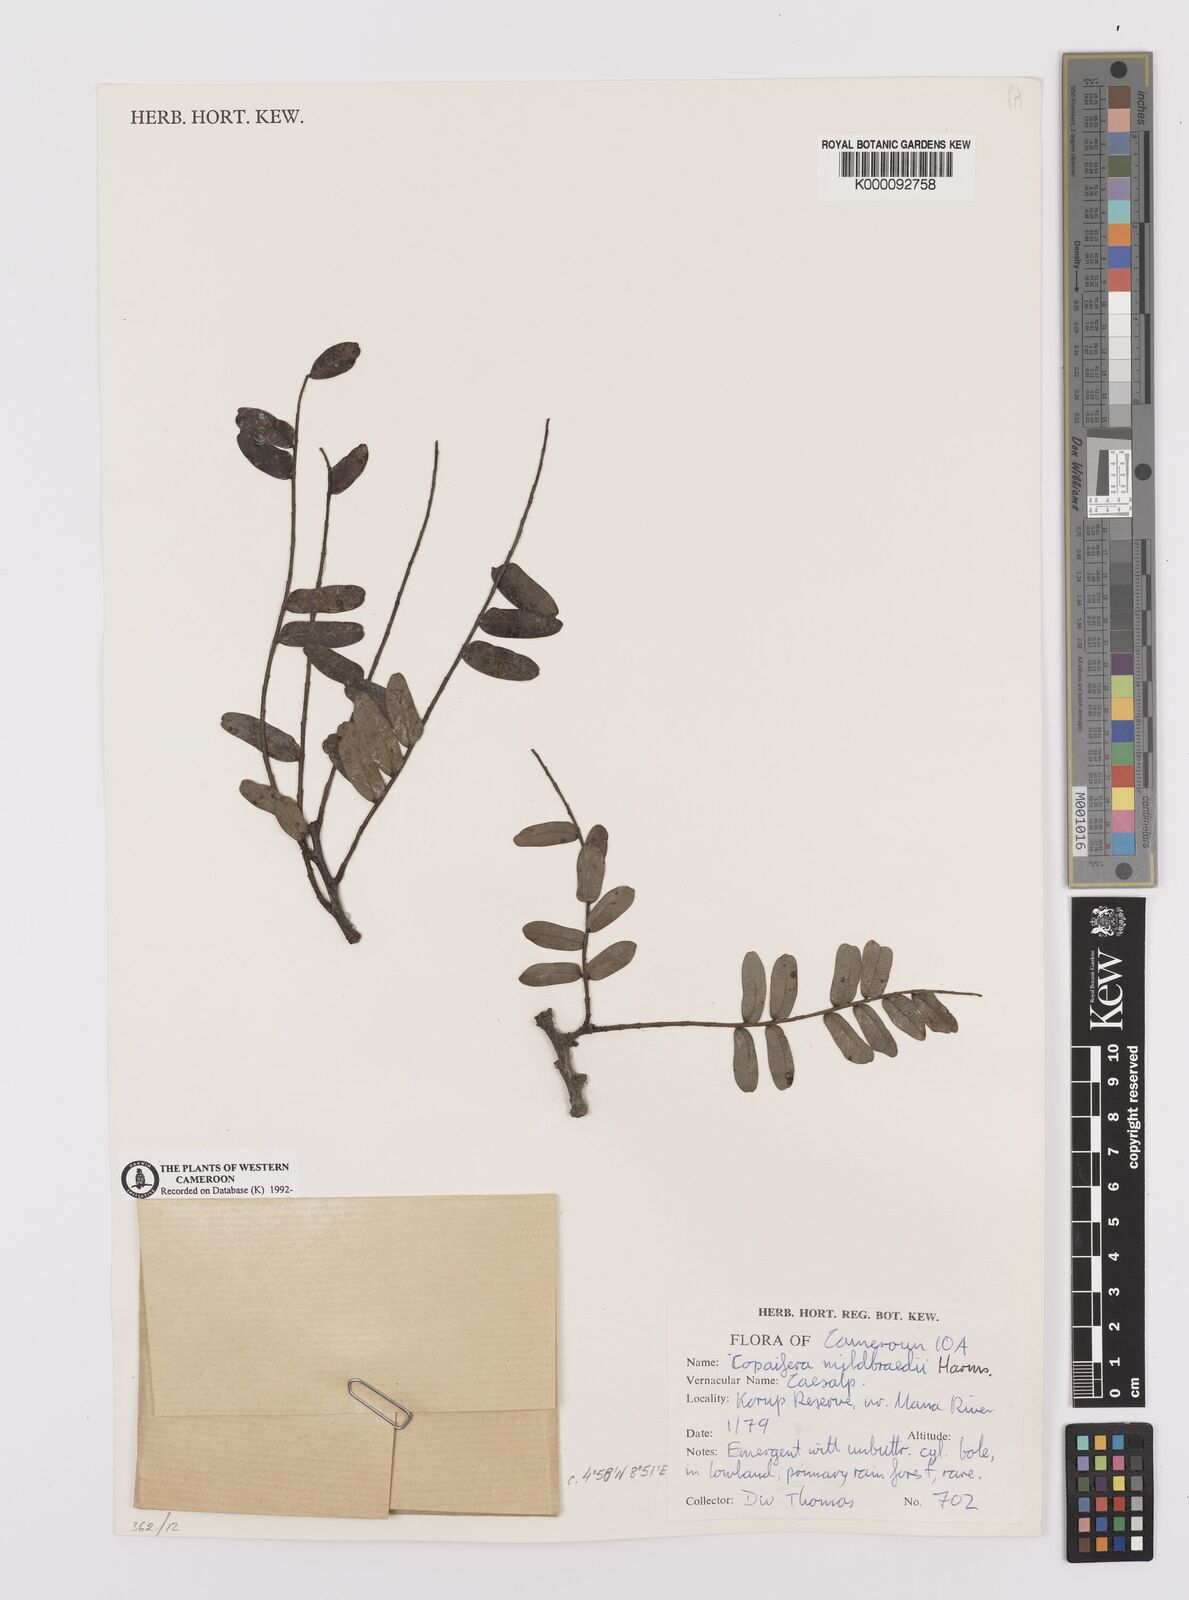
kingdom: Plantae
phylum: Tracheophyta
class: Magnoliopsida
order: Fabales
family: Fabaceae
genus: Copaifera
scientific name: Copaifera mildbraedii
